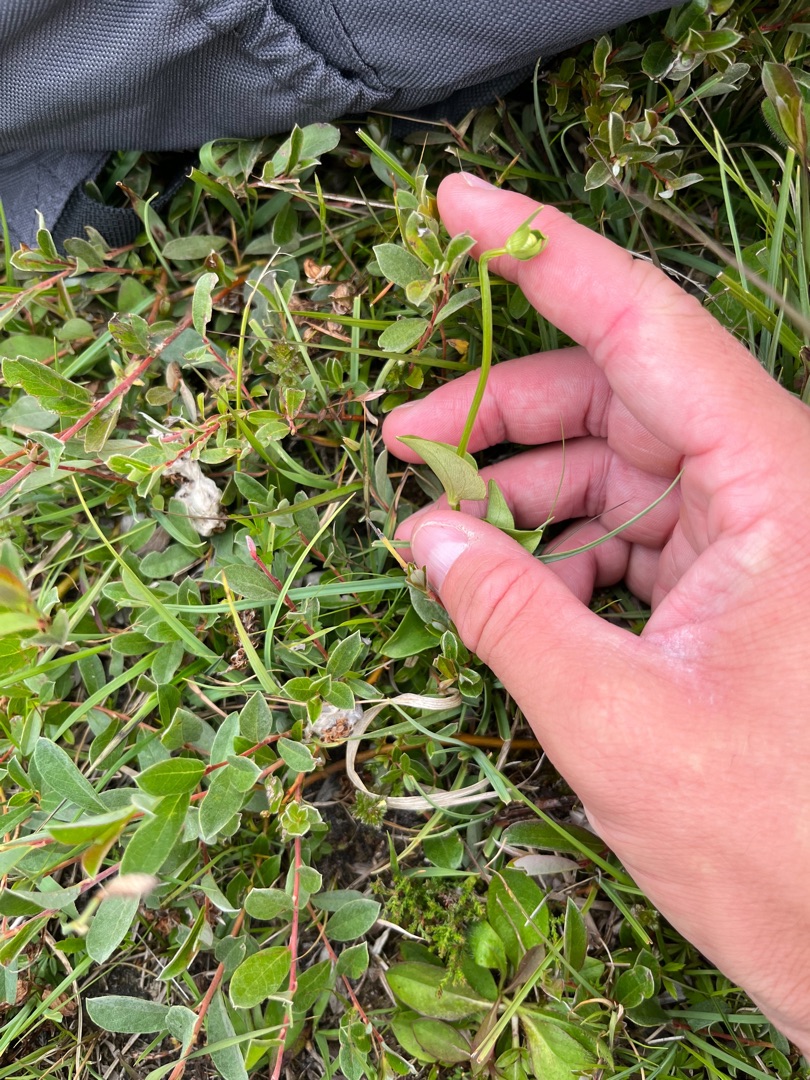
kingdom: Plantae
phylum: Tracheophyta
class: Magnoliopsida
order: Celastrales
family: Parnassiaceae
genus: Parnassia
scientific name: Parnassia palustris
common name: Leverurt
